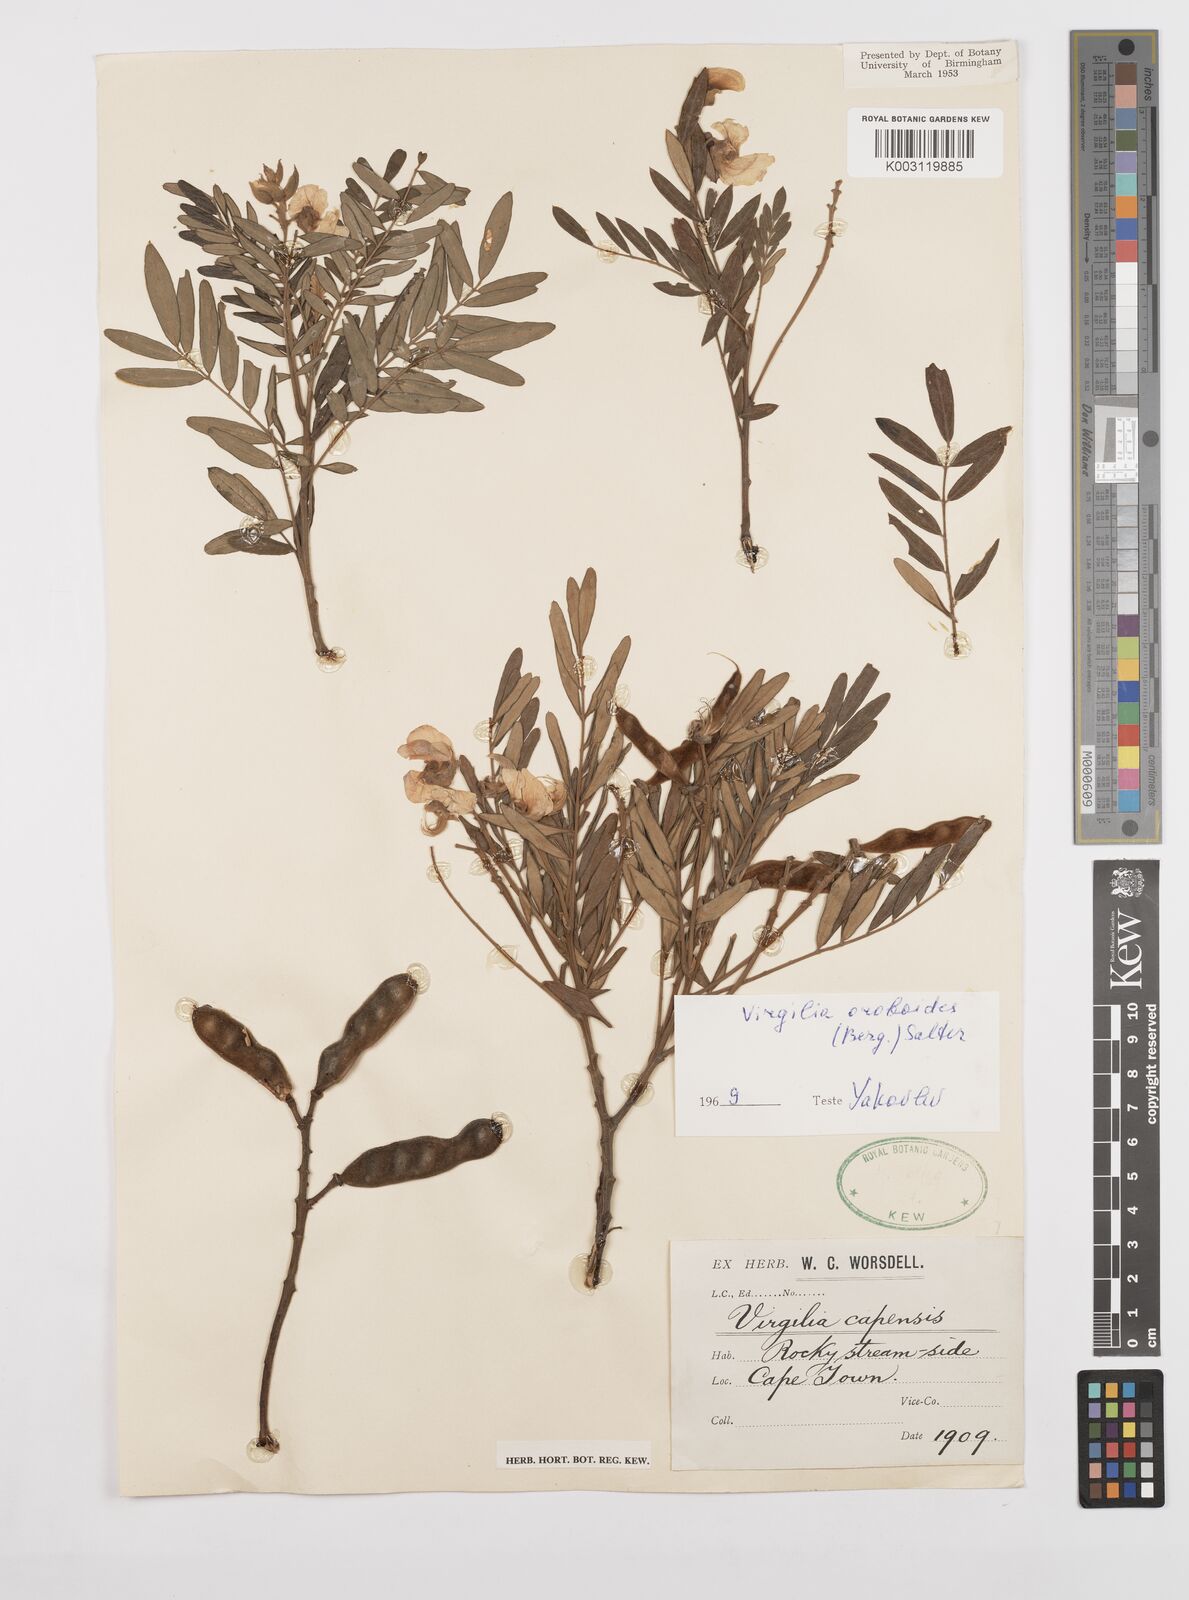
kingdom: Plantae
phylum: Tracheophyta
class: Magnoliopsida
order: Fabales
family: Fabaceae
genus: Virgilia
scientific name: Virgilia oroboides
